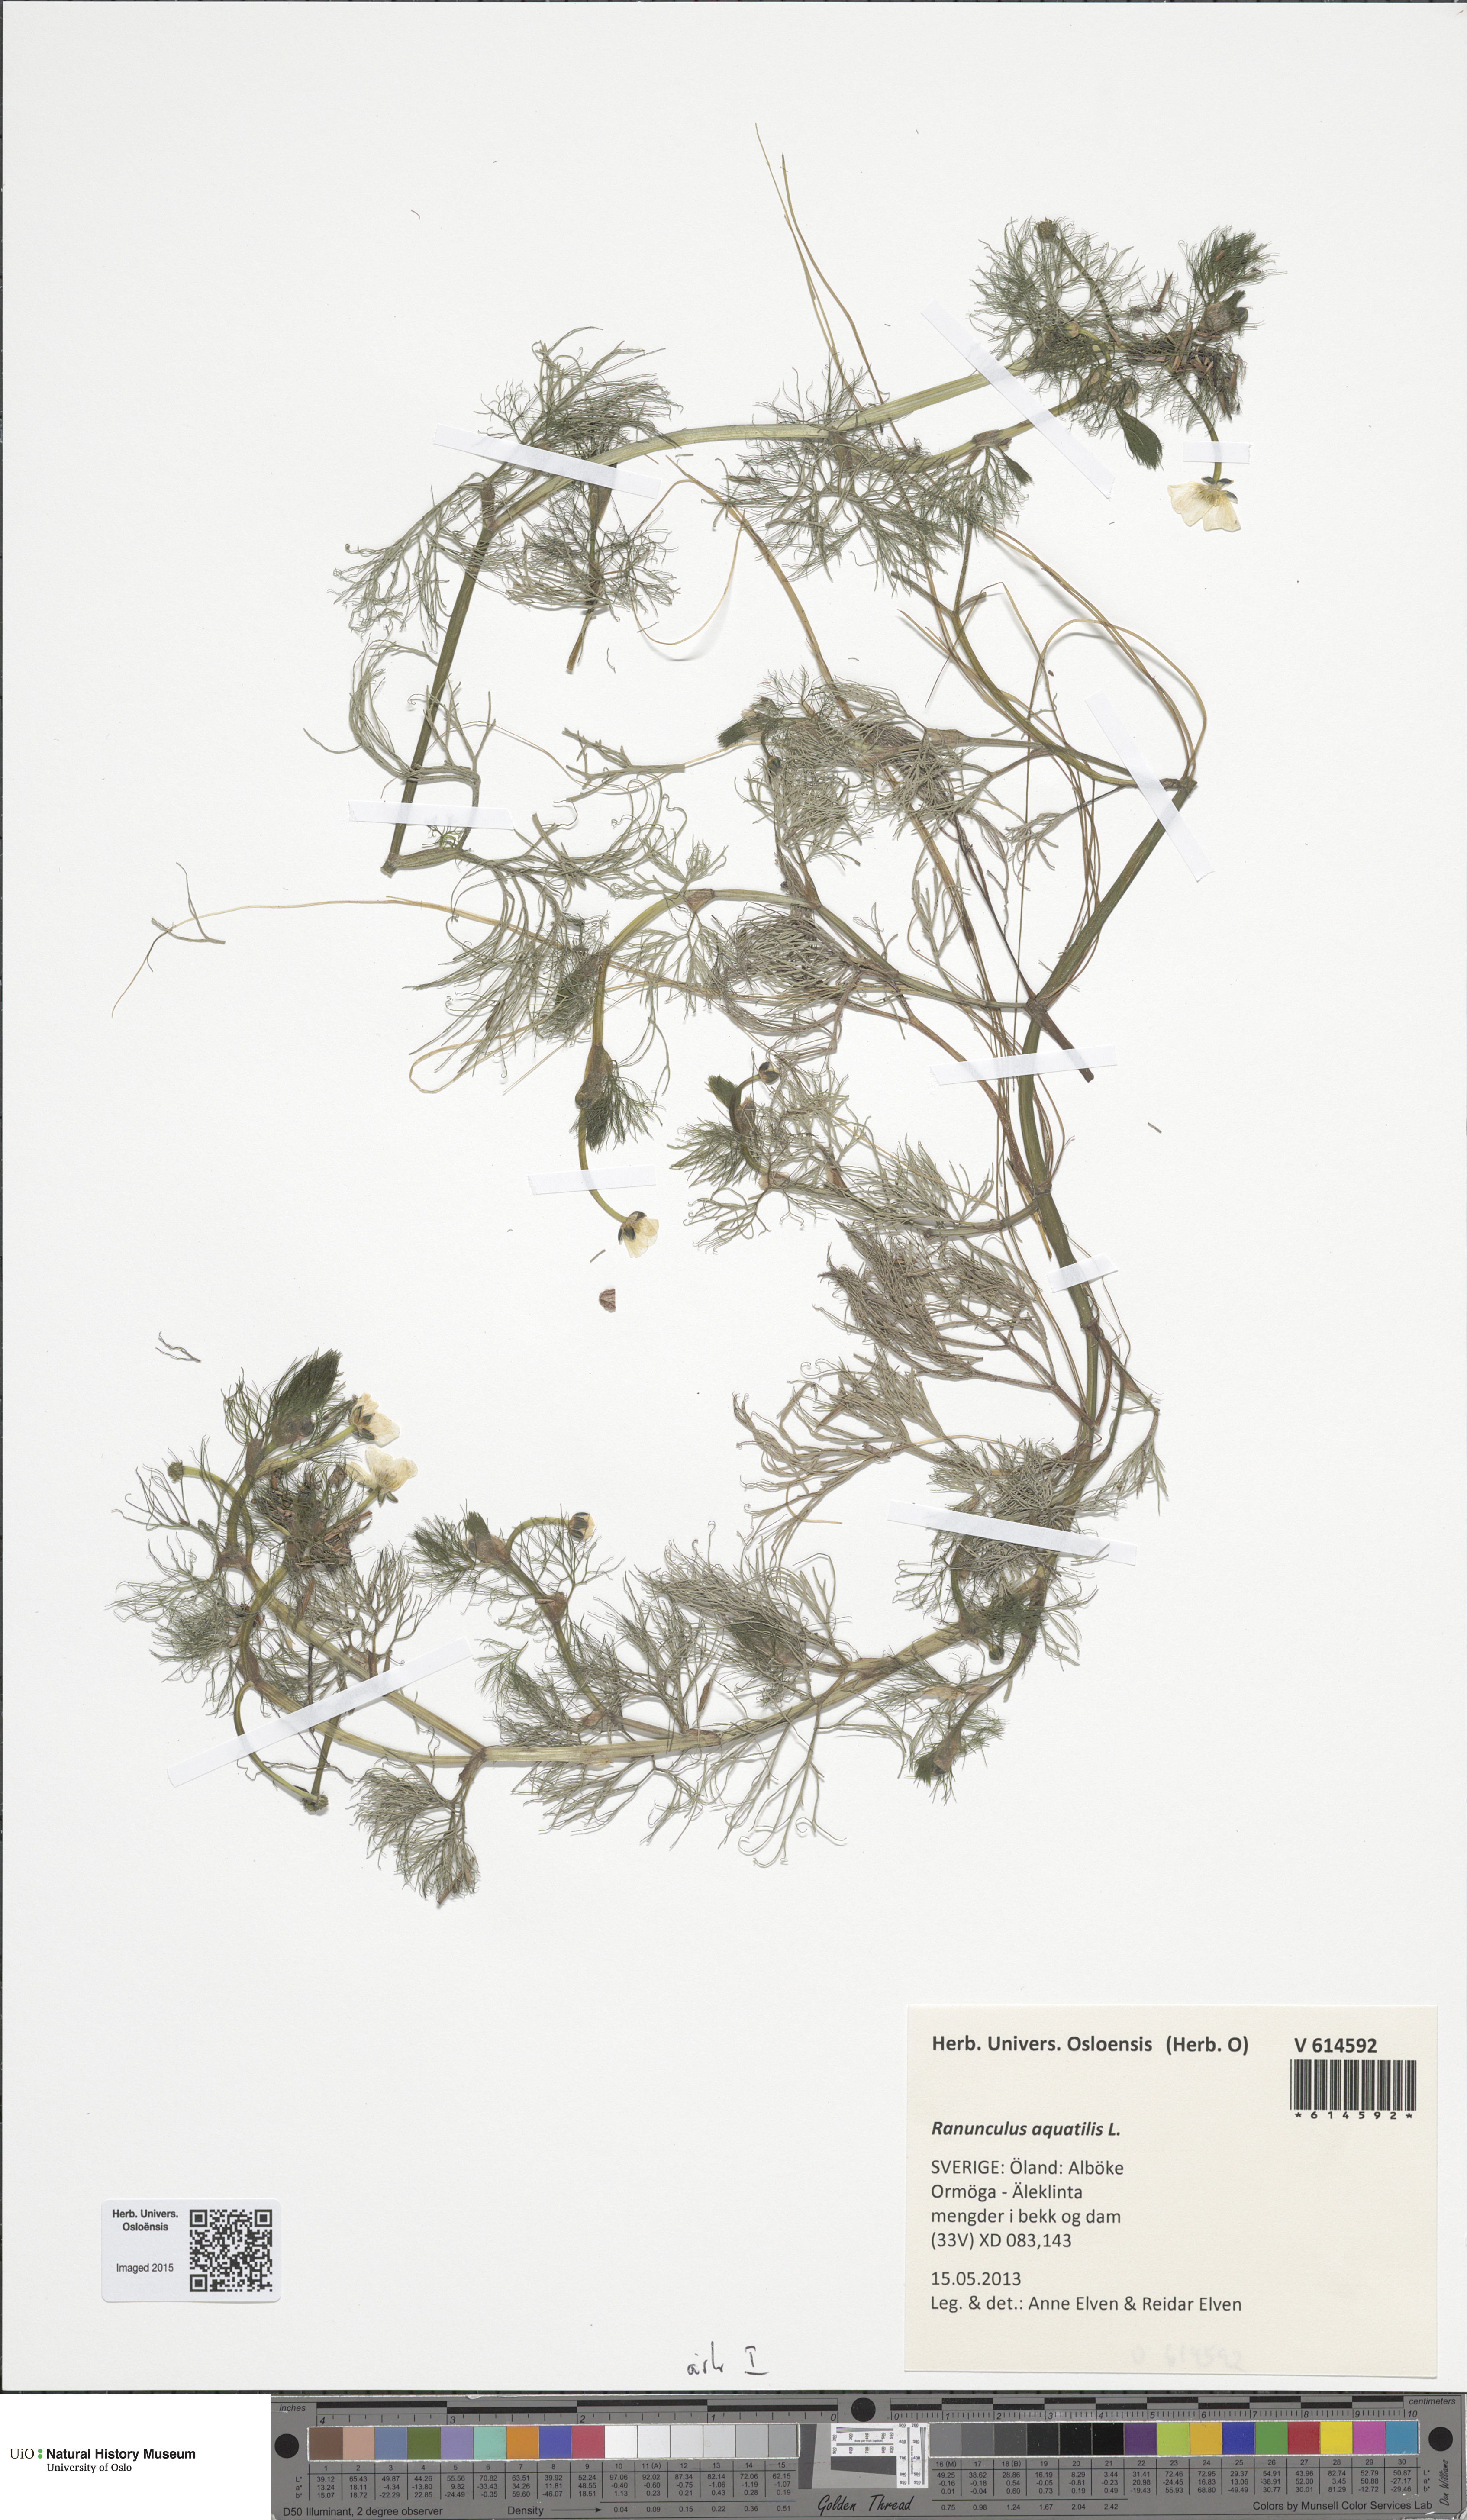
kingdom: Plantae
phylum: Tracheophyta
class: Magnoliopsida
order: Ranunculales
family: Ranunculaceae
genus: Ranunculus
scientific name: Ranunculus aquatilis
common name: Common water-crowfoot
